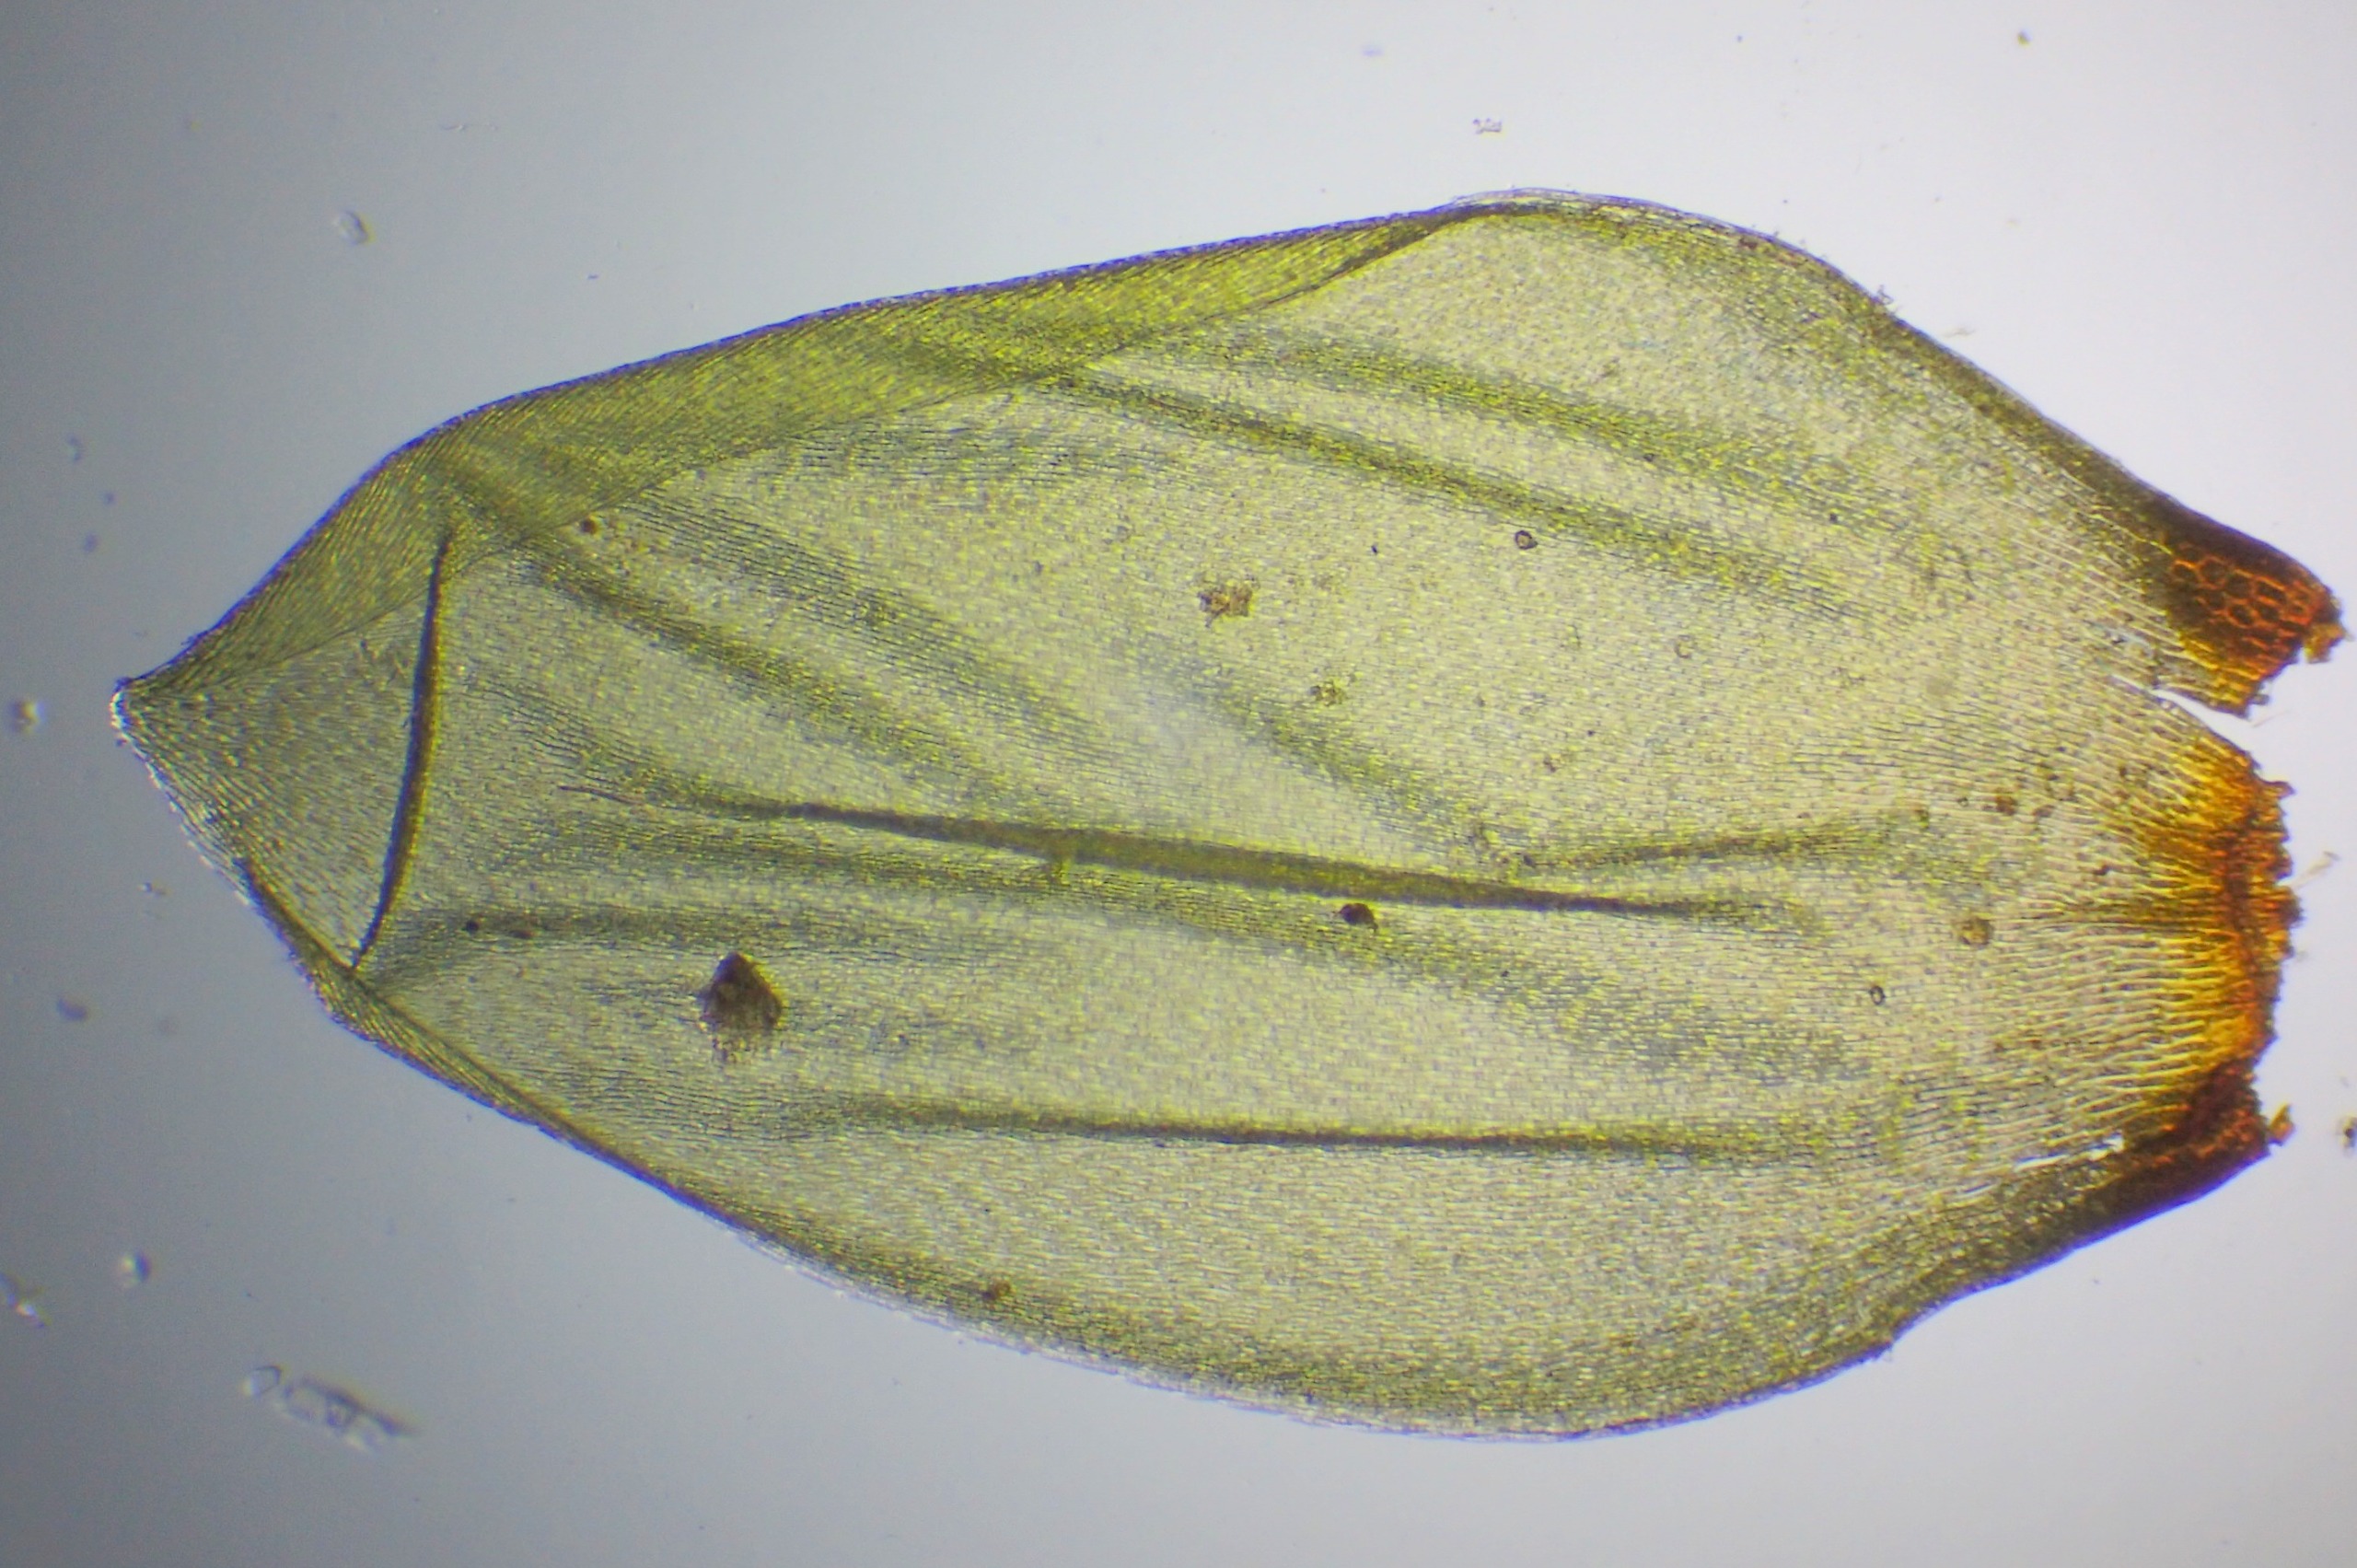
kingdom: Plantae
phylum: Bryophyta
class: Bryopsida
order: Hypnales
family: Hylocomiaceae
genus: Pleurozium
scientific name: Pleurozium schreberi
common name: Trind fyrremos
